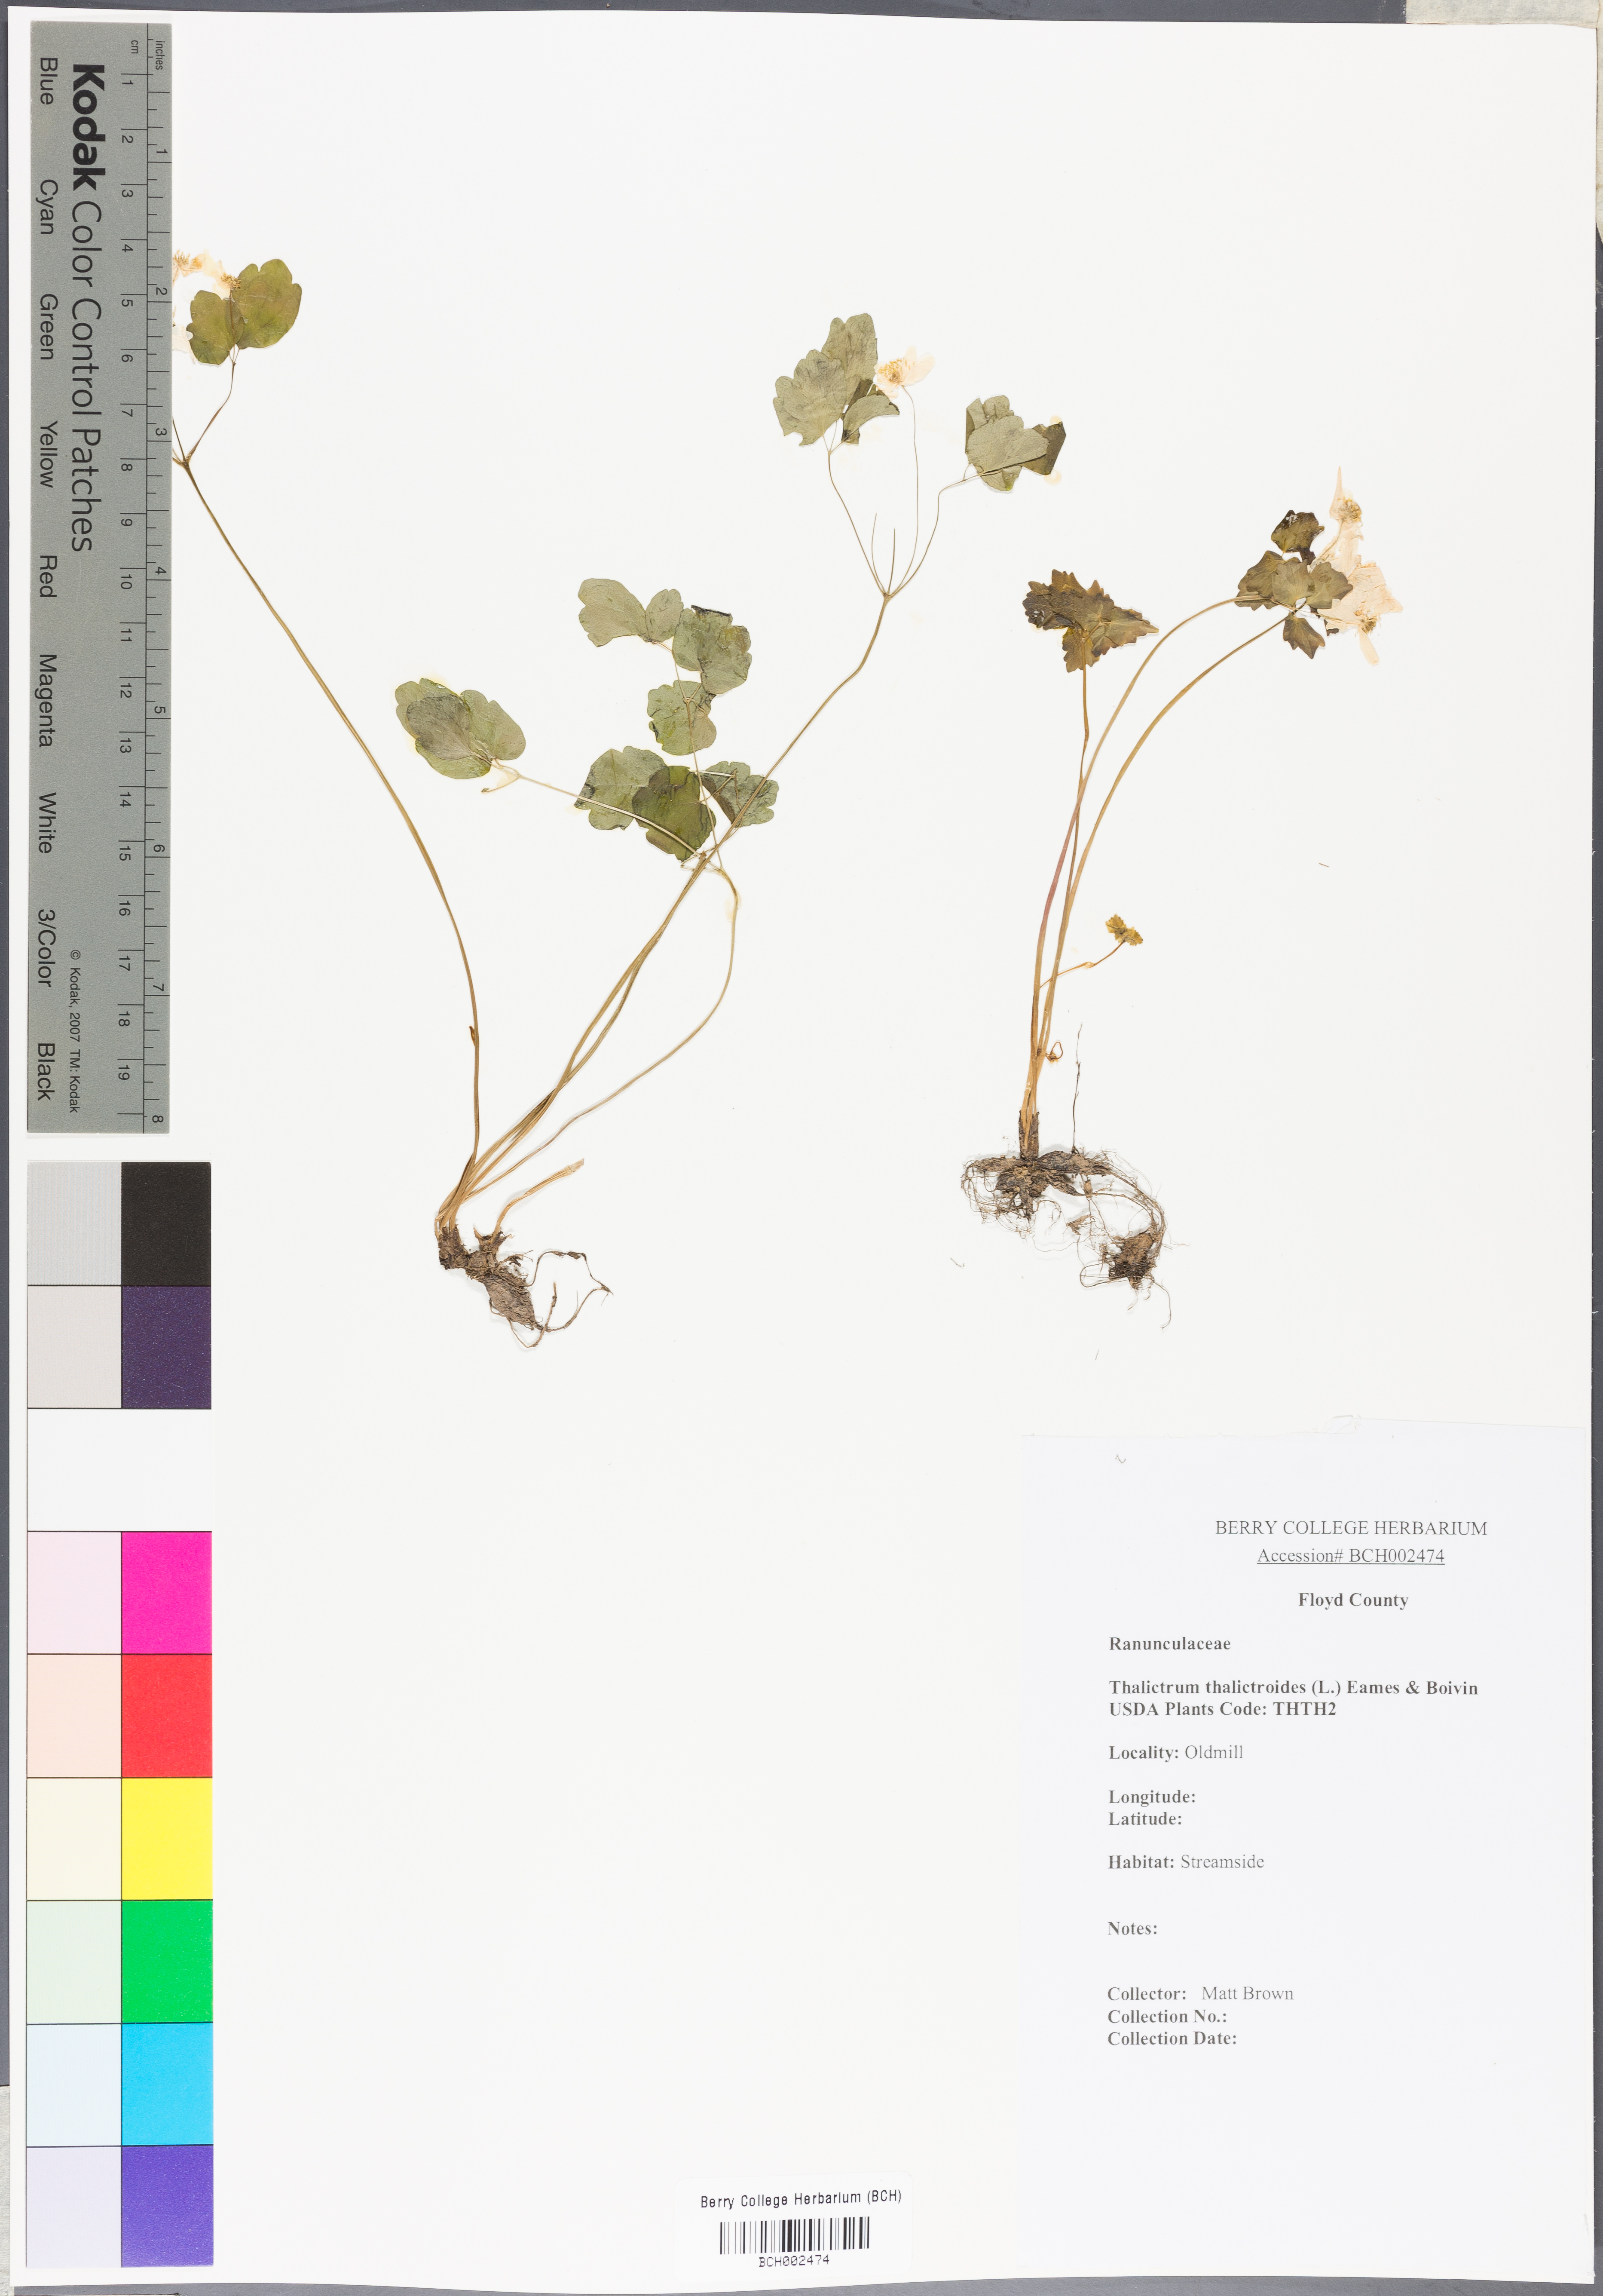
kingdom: Plantae
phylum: Tracheophyta
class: Magnoliopsida
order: Ranunculales
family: Ranunculaceae
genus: Thalictrum
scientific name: Thalictrum thalictroides
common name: Rue-anemone
